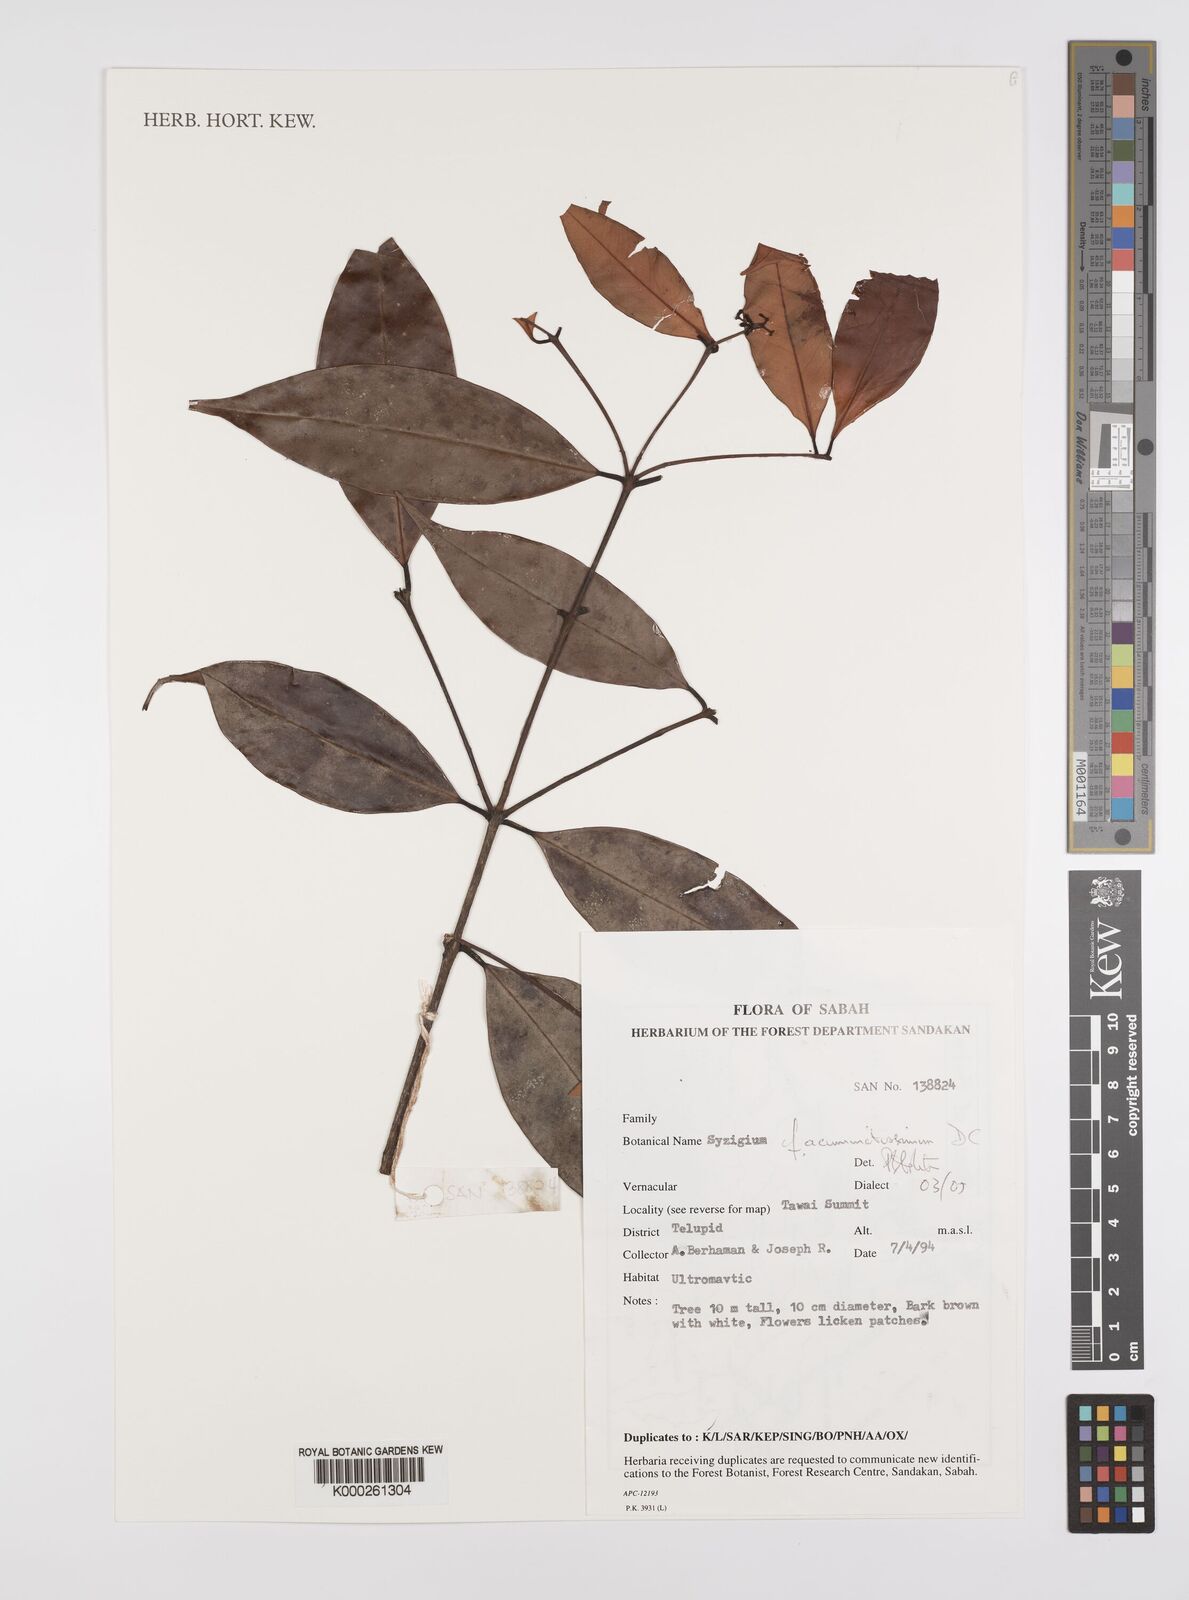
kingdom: Plantae
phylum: Tracheophyta
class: Magnoliopsida
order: Myrtales
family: Myrtaceae
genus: Syzygium
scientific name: Syzygium acuminatissimum
